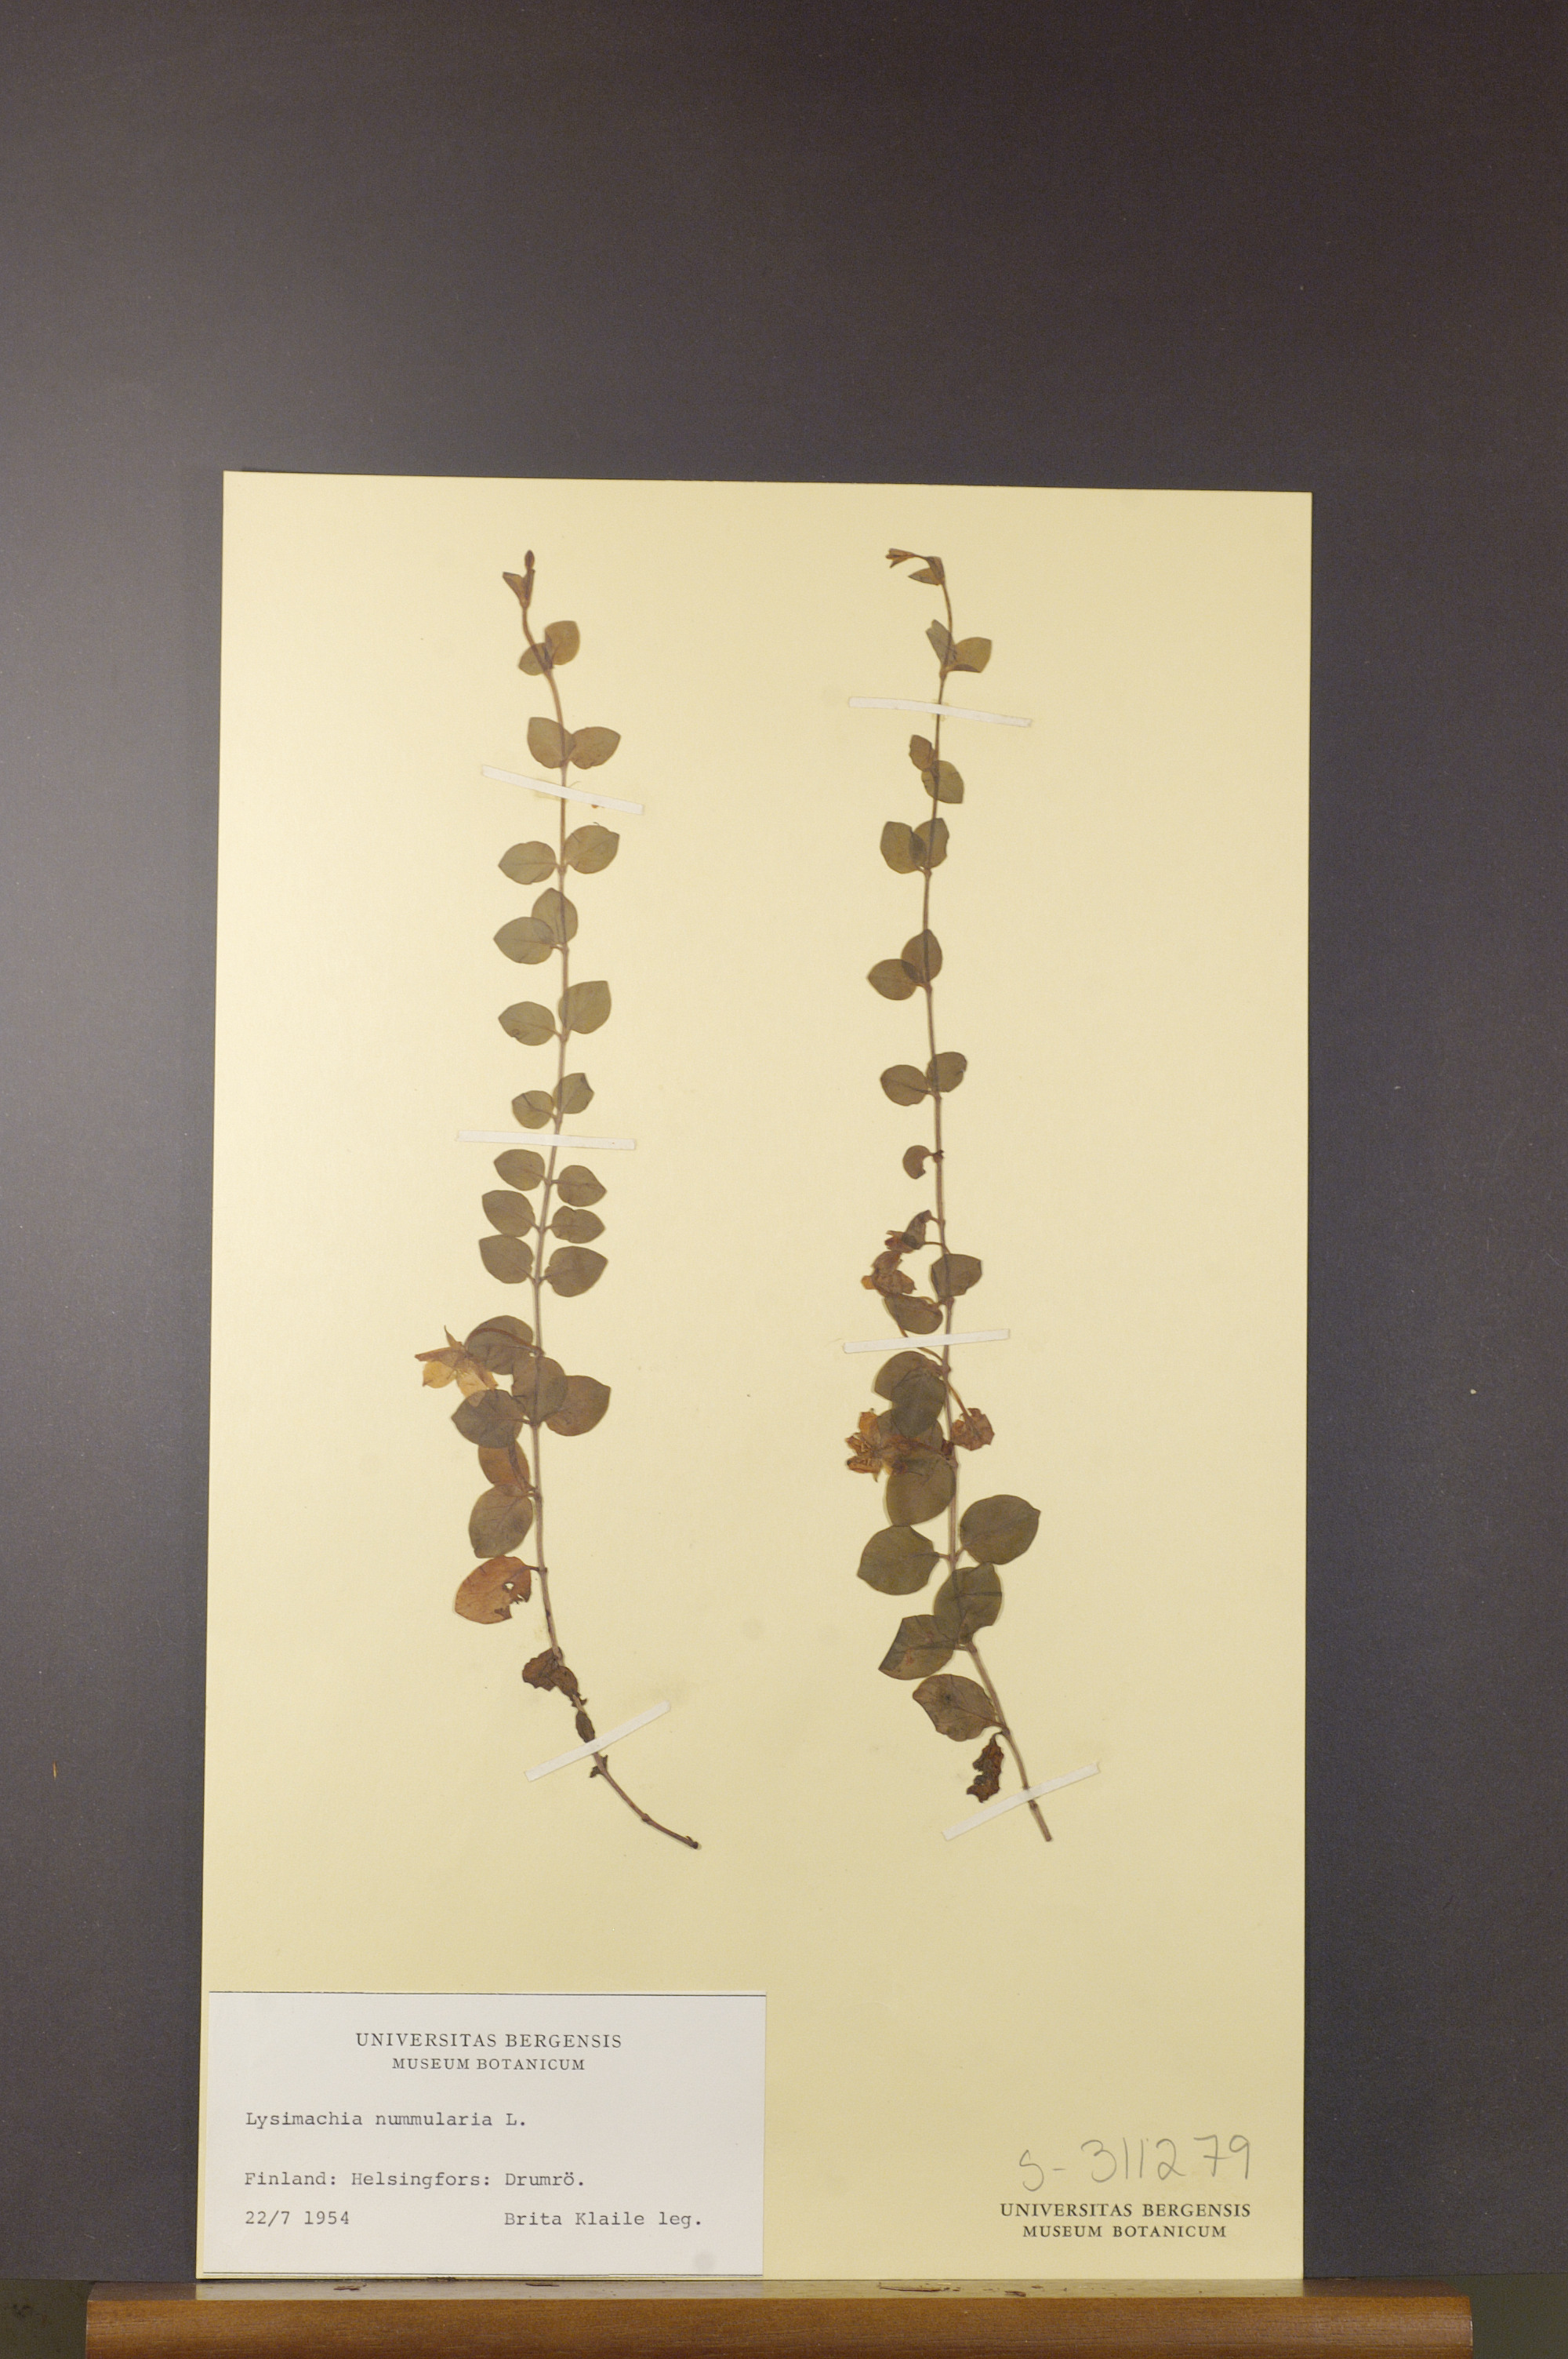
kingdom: Plantae
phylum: Tracheophyta
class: Magnoliopsida
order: Ericales
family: Primulaceae
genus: Lysimachia
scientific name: Lysimachia nummularia
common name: Moneywort
